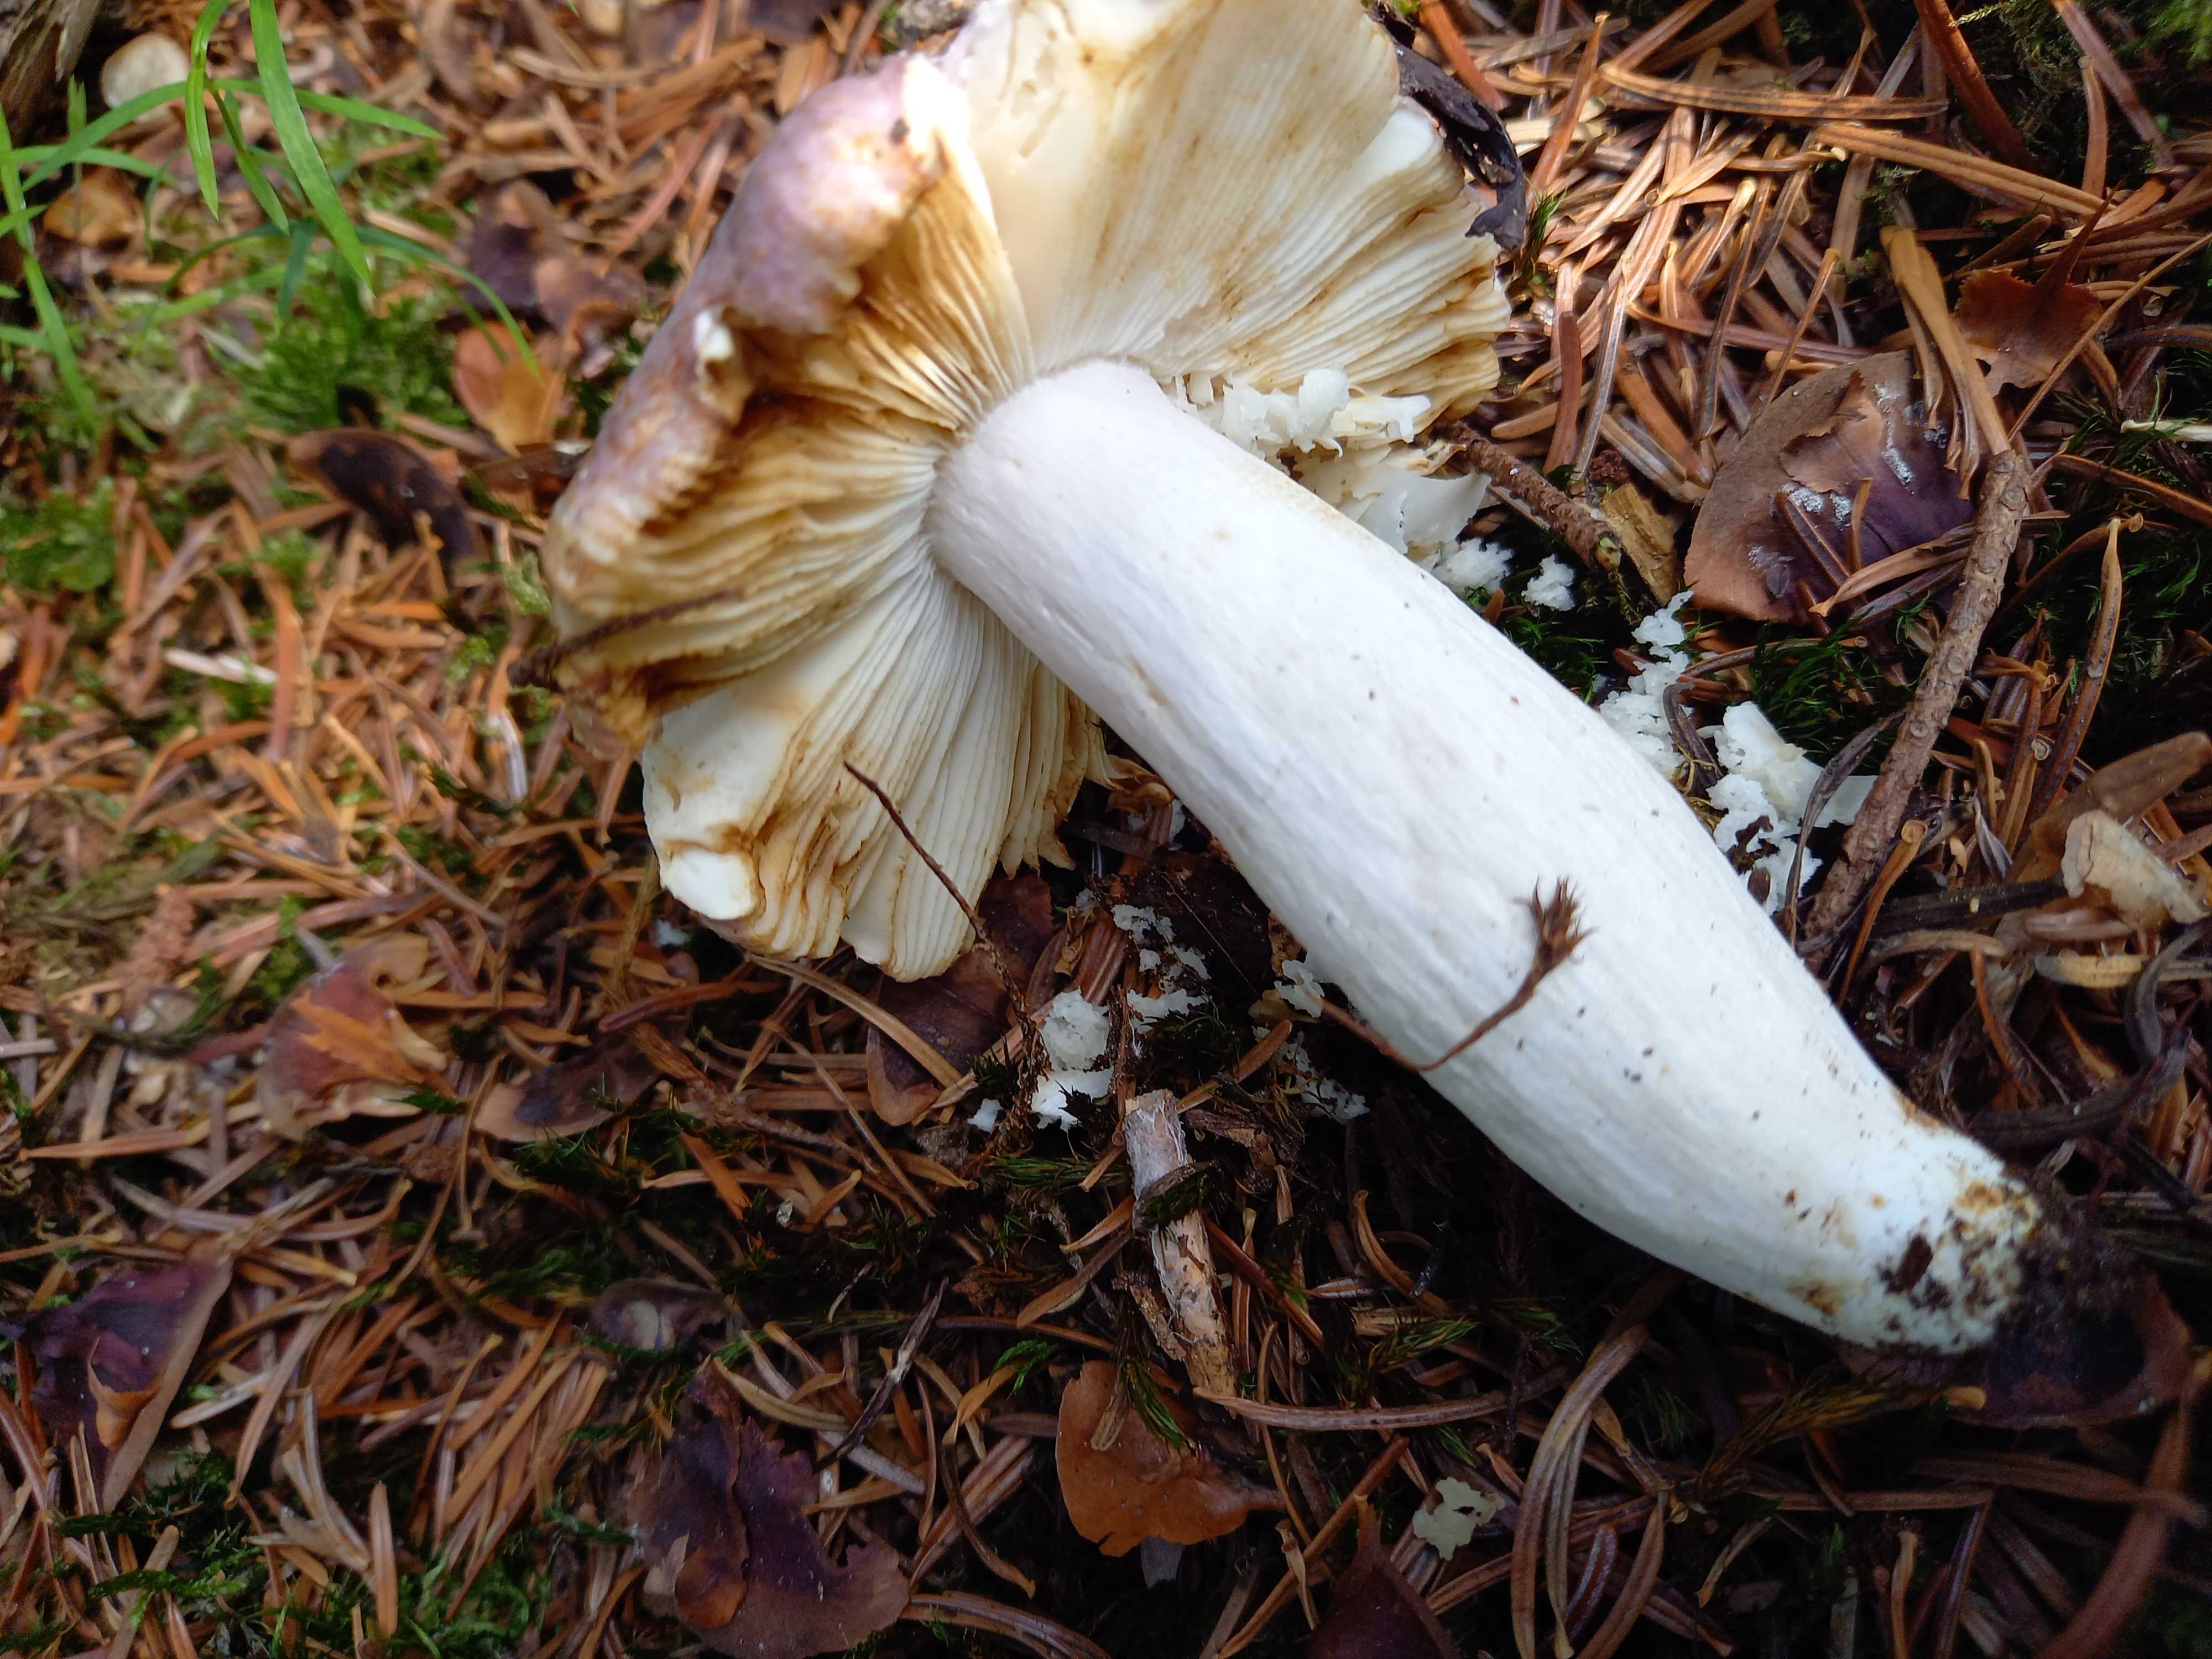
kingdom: Fungi
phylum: Basidiomycota
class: Agaricomycetes
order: Russulales
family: Russulaceae
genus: Russula
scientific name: Russula cyanoxantha
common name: broget skørhat
